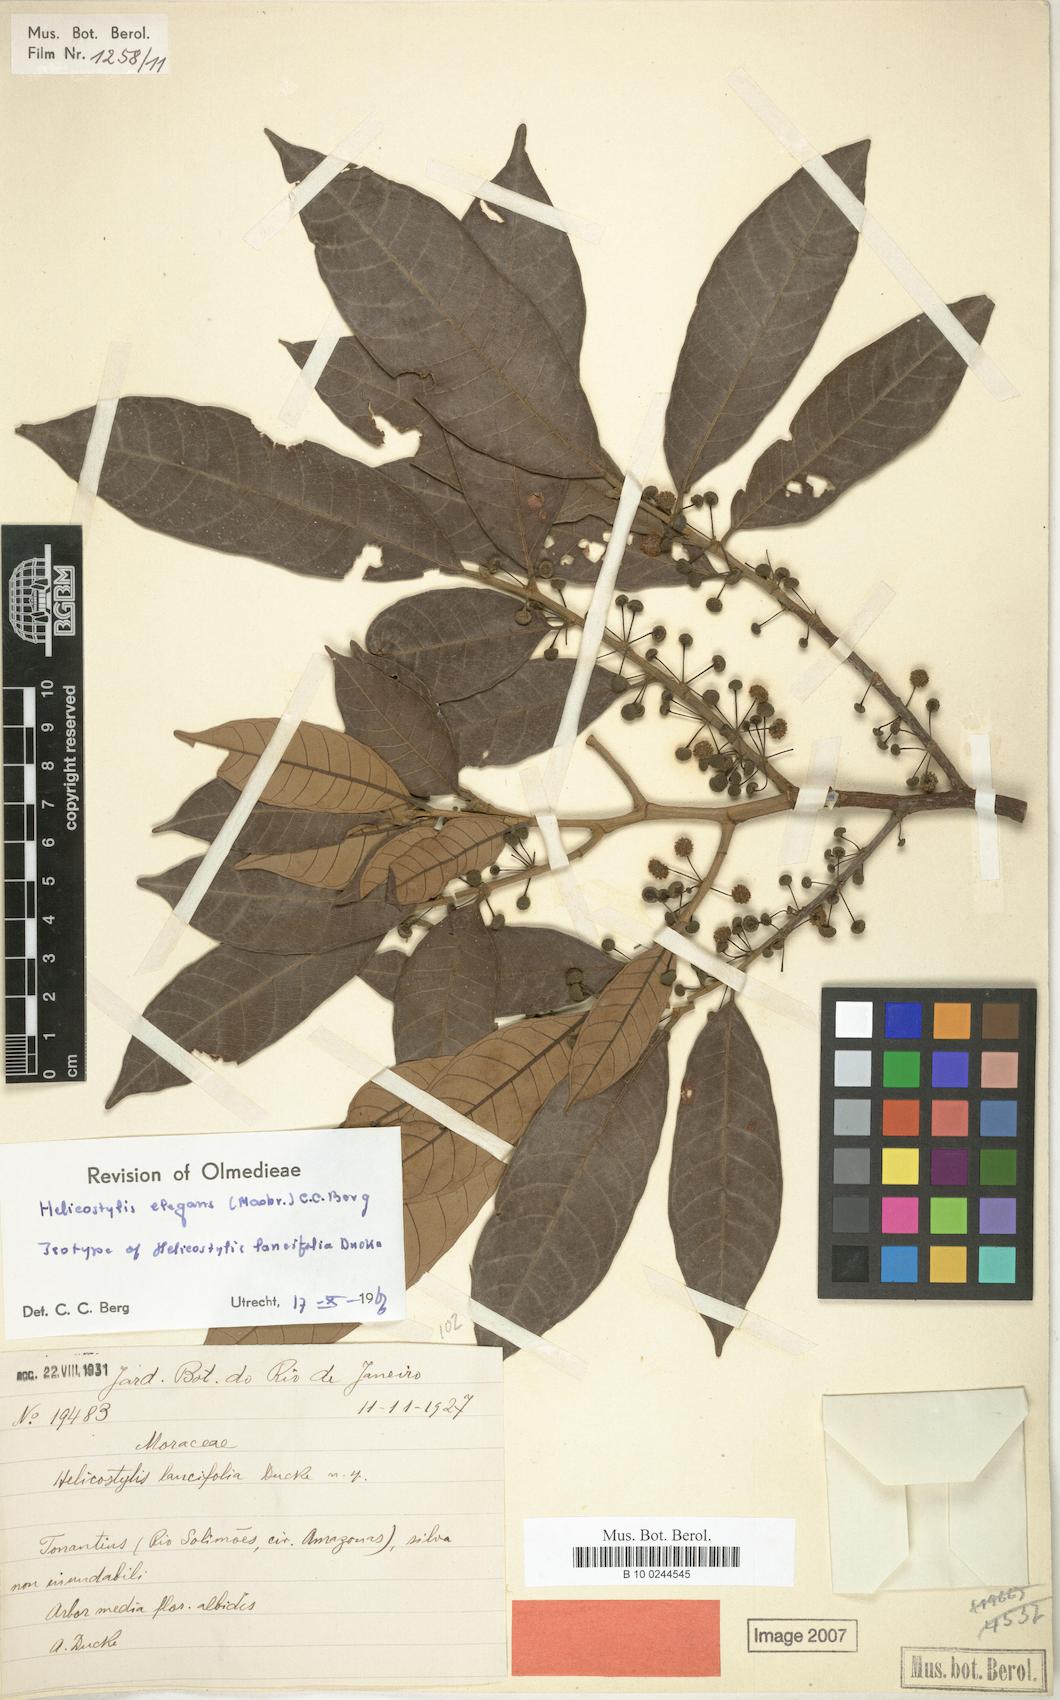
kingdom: Plantae
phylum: Tracheophyta
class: Magnoliopsida
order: Rosales
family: Moraceae
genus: Helicostylis
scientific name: Helicostylis elegans
